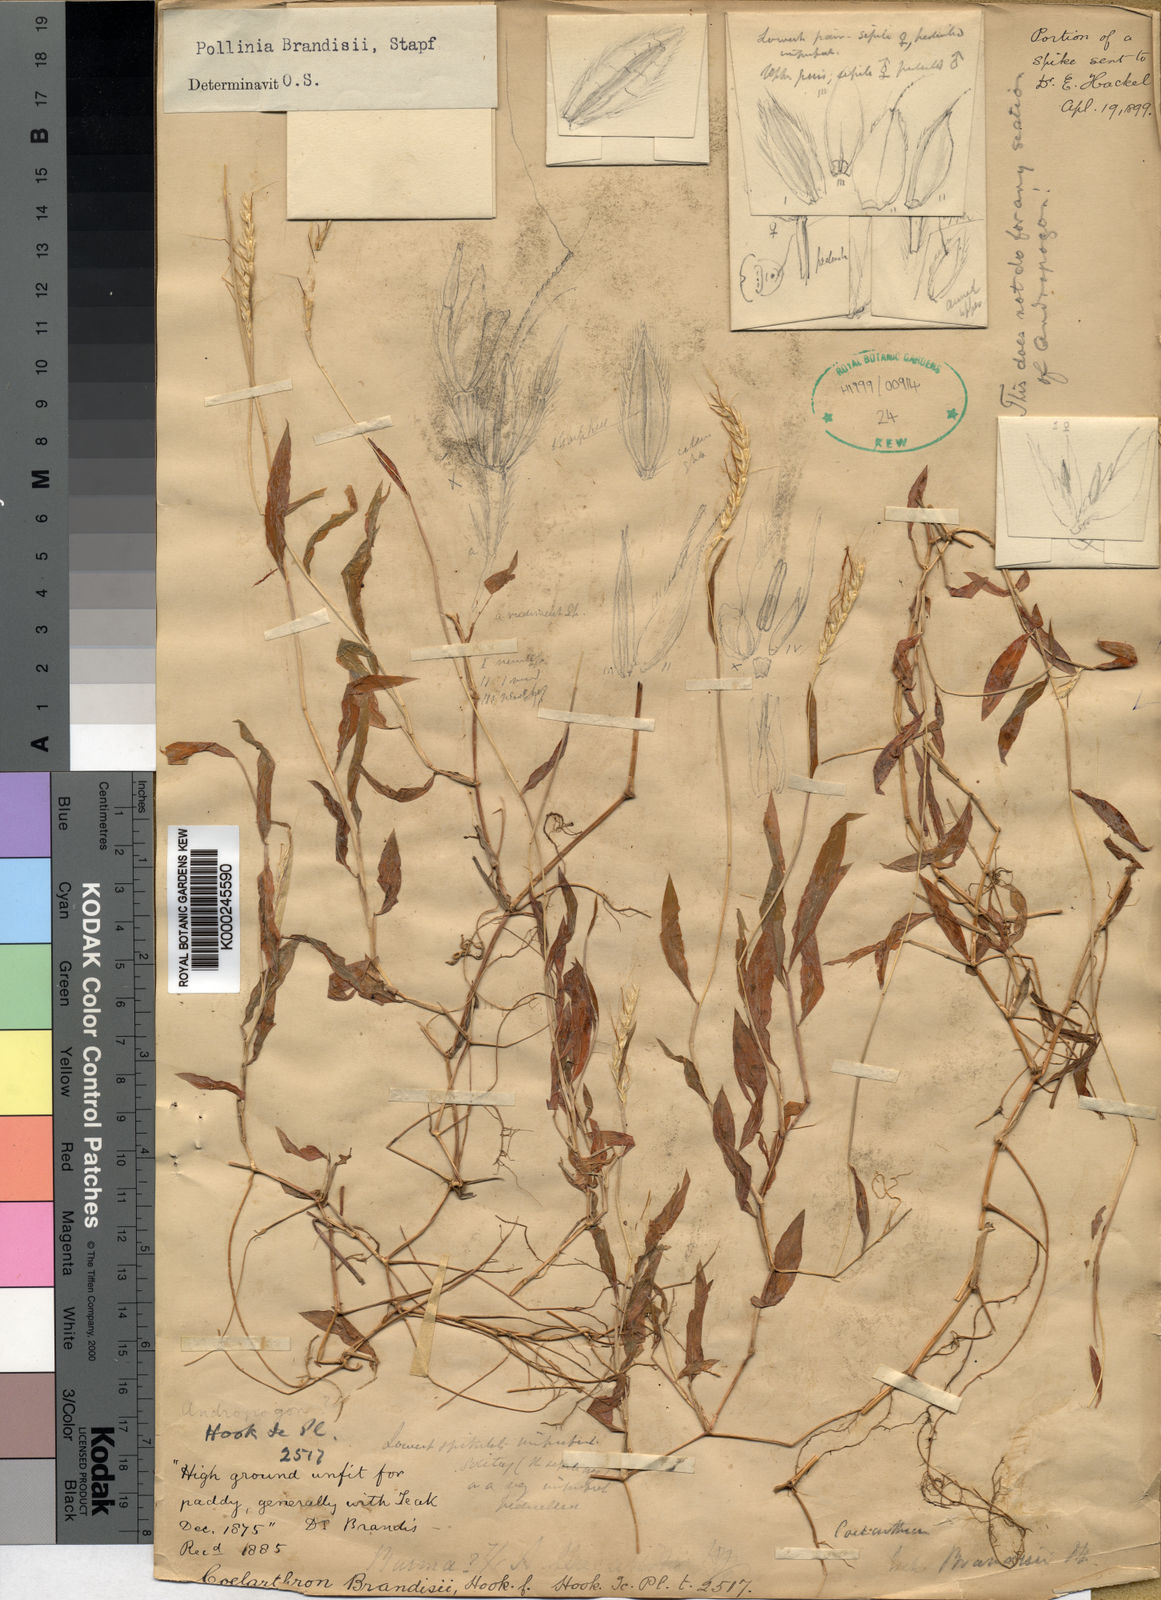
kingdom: Plantae
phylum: Tracheophyta
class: Liliopsida
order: Poales
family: Poaceae
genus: Microstegium
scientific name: Microstegium brandisii
